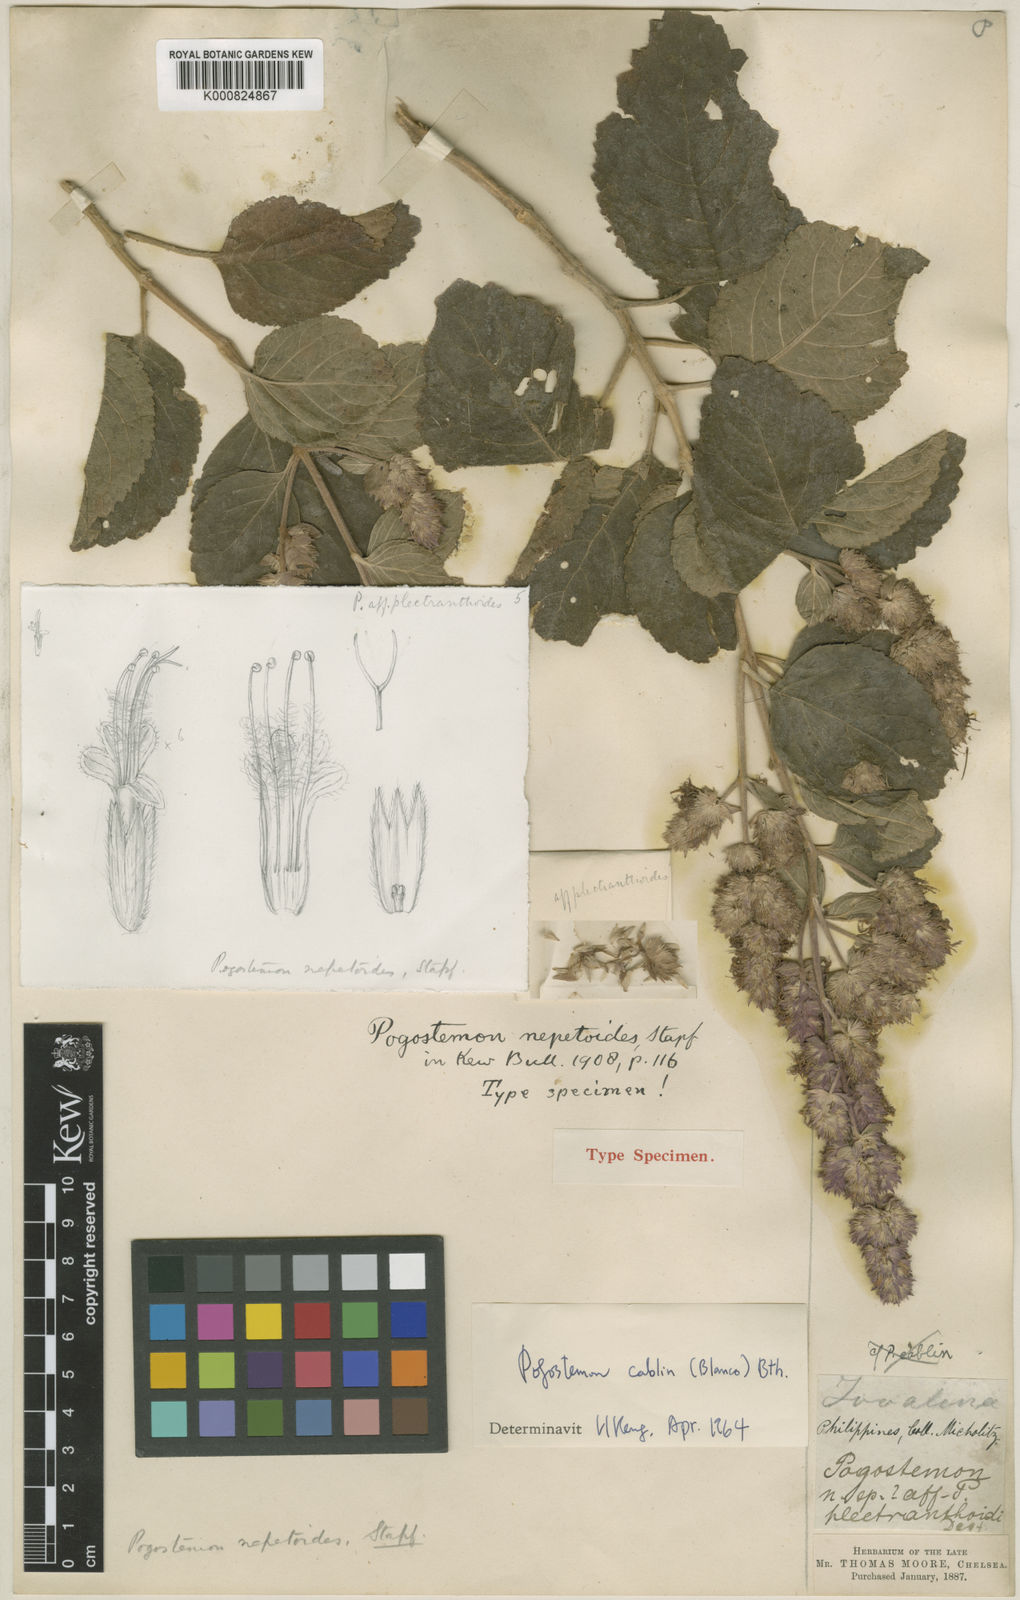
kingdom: Plantae
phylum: Tracheophyta
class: Magnoliopsida
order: Lamiales
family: Lamiaceae
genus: Pogostemon
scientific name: Pogostemon cablin
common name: Patchouli-plant
